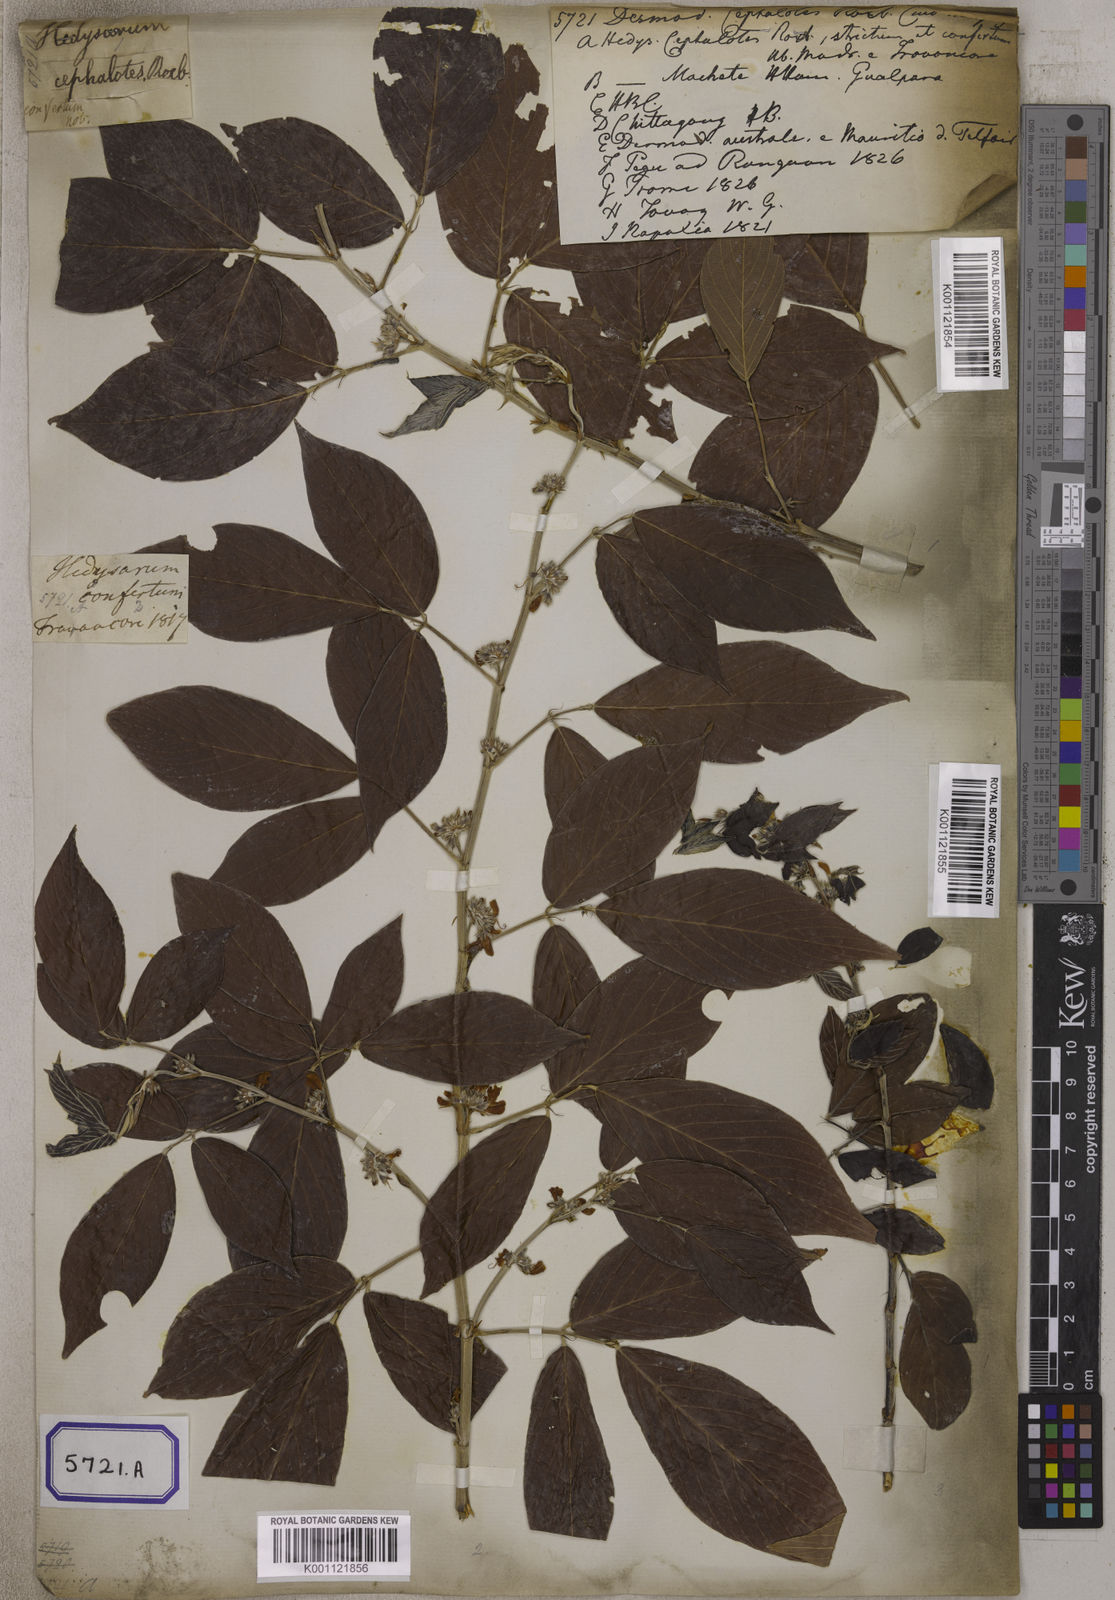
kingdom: Plantae
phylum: Tracheophyta
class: Magnoliopsida
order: Fabales
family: Fabaceae
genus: Desmodium
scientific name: Desmodium
